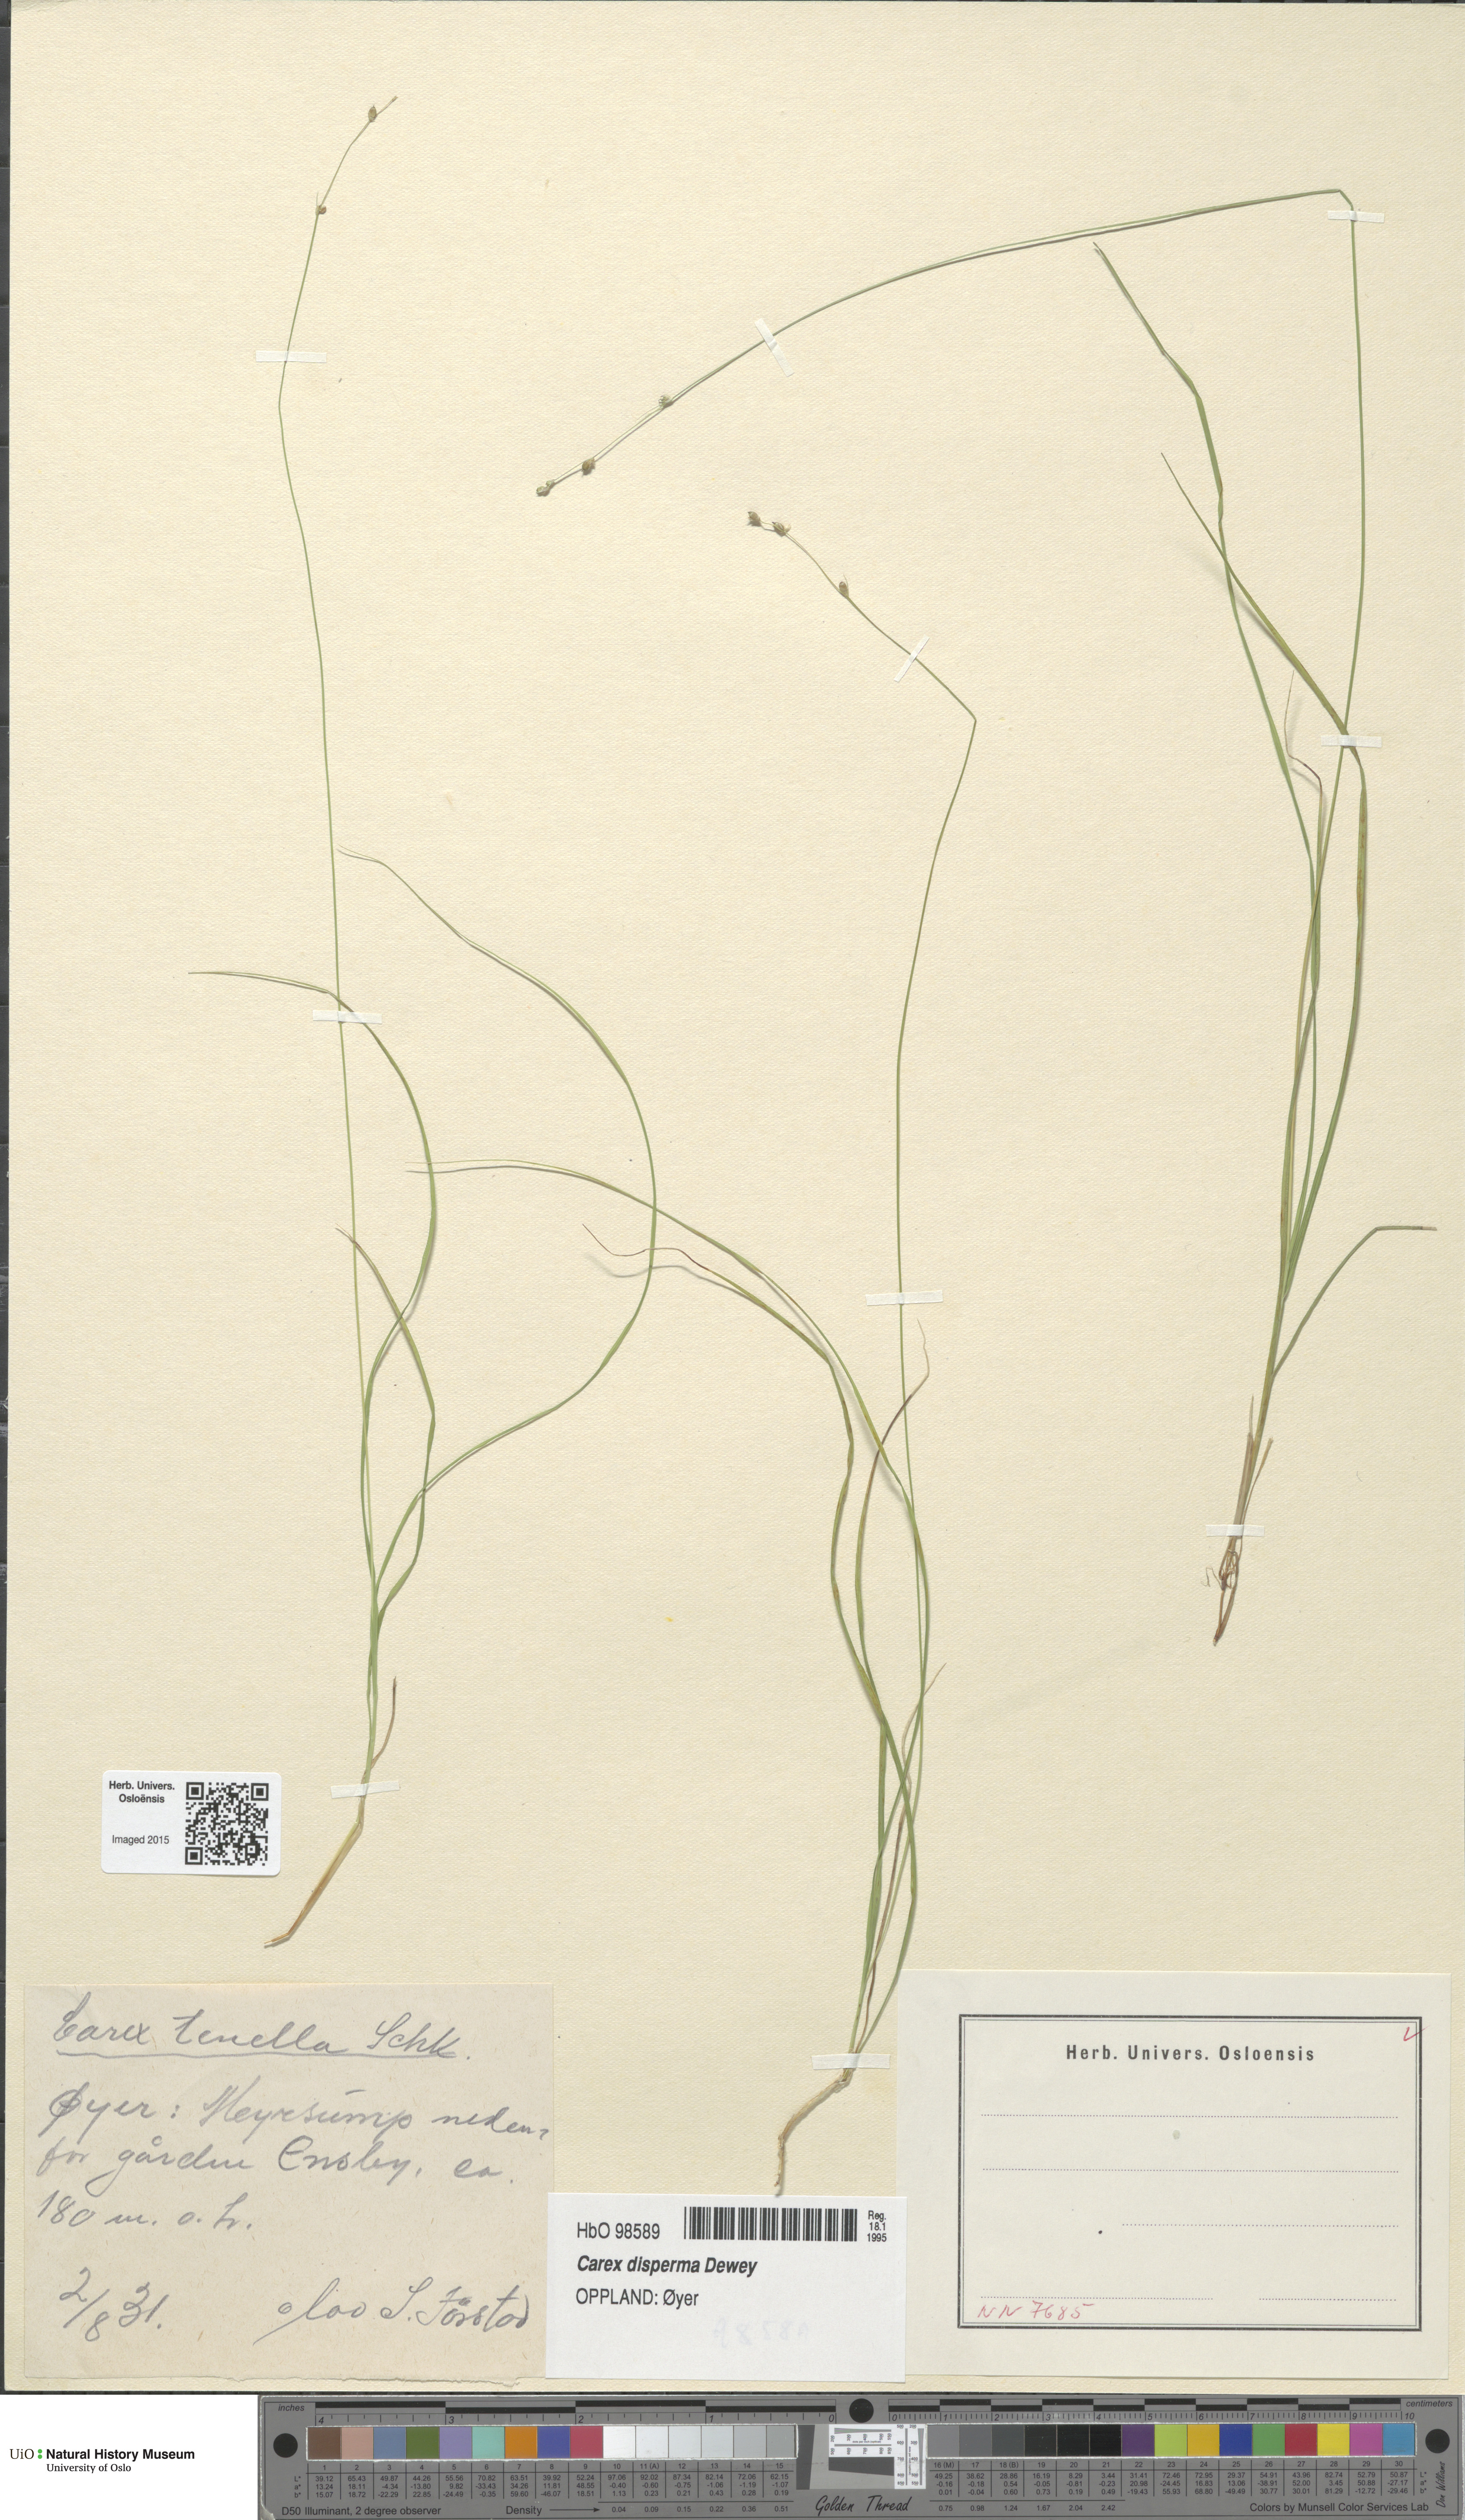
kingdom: Plantae
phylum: Tracheophyta
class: Liliopsida
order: Poales
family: Cyperaceae
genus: Carex
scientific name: Carex disperma
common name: Short-leaved sedge
